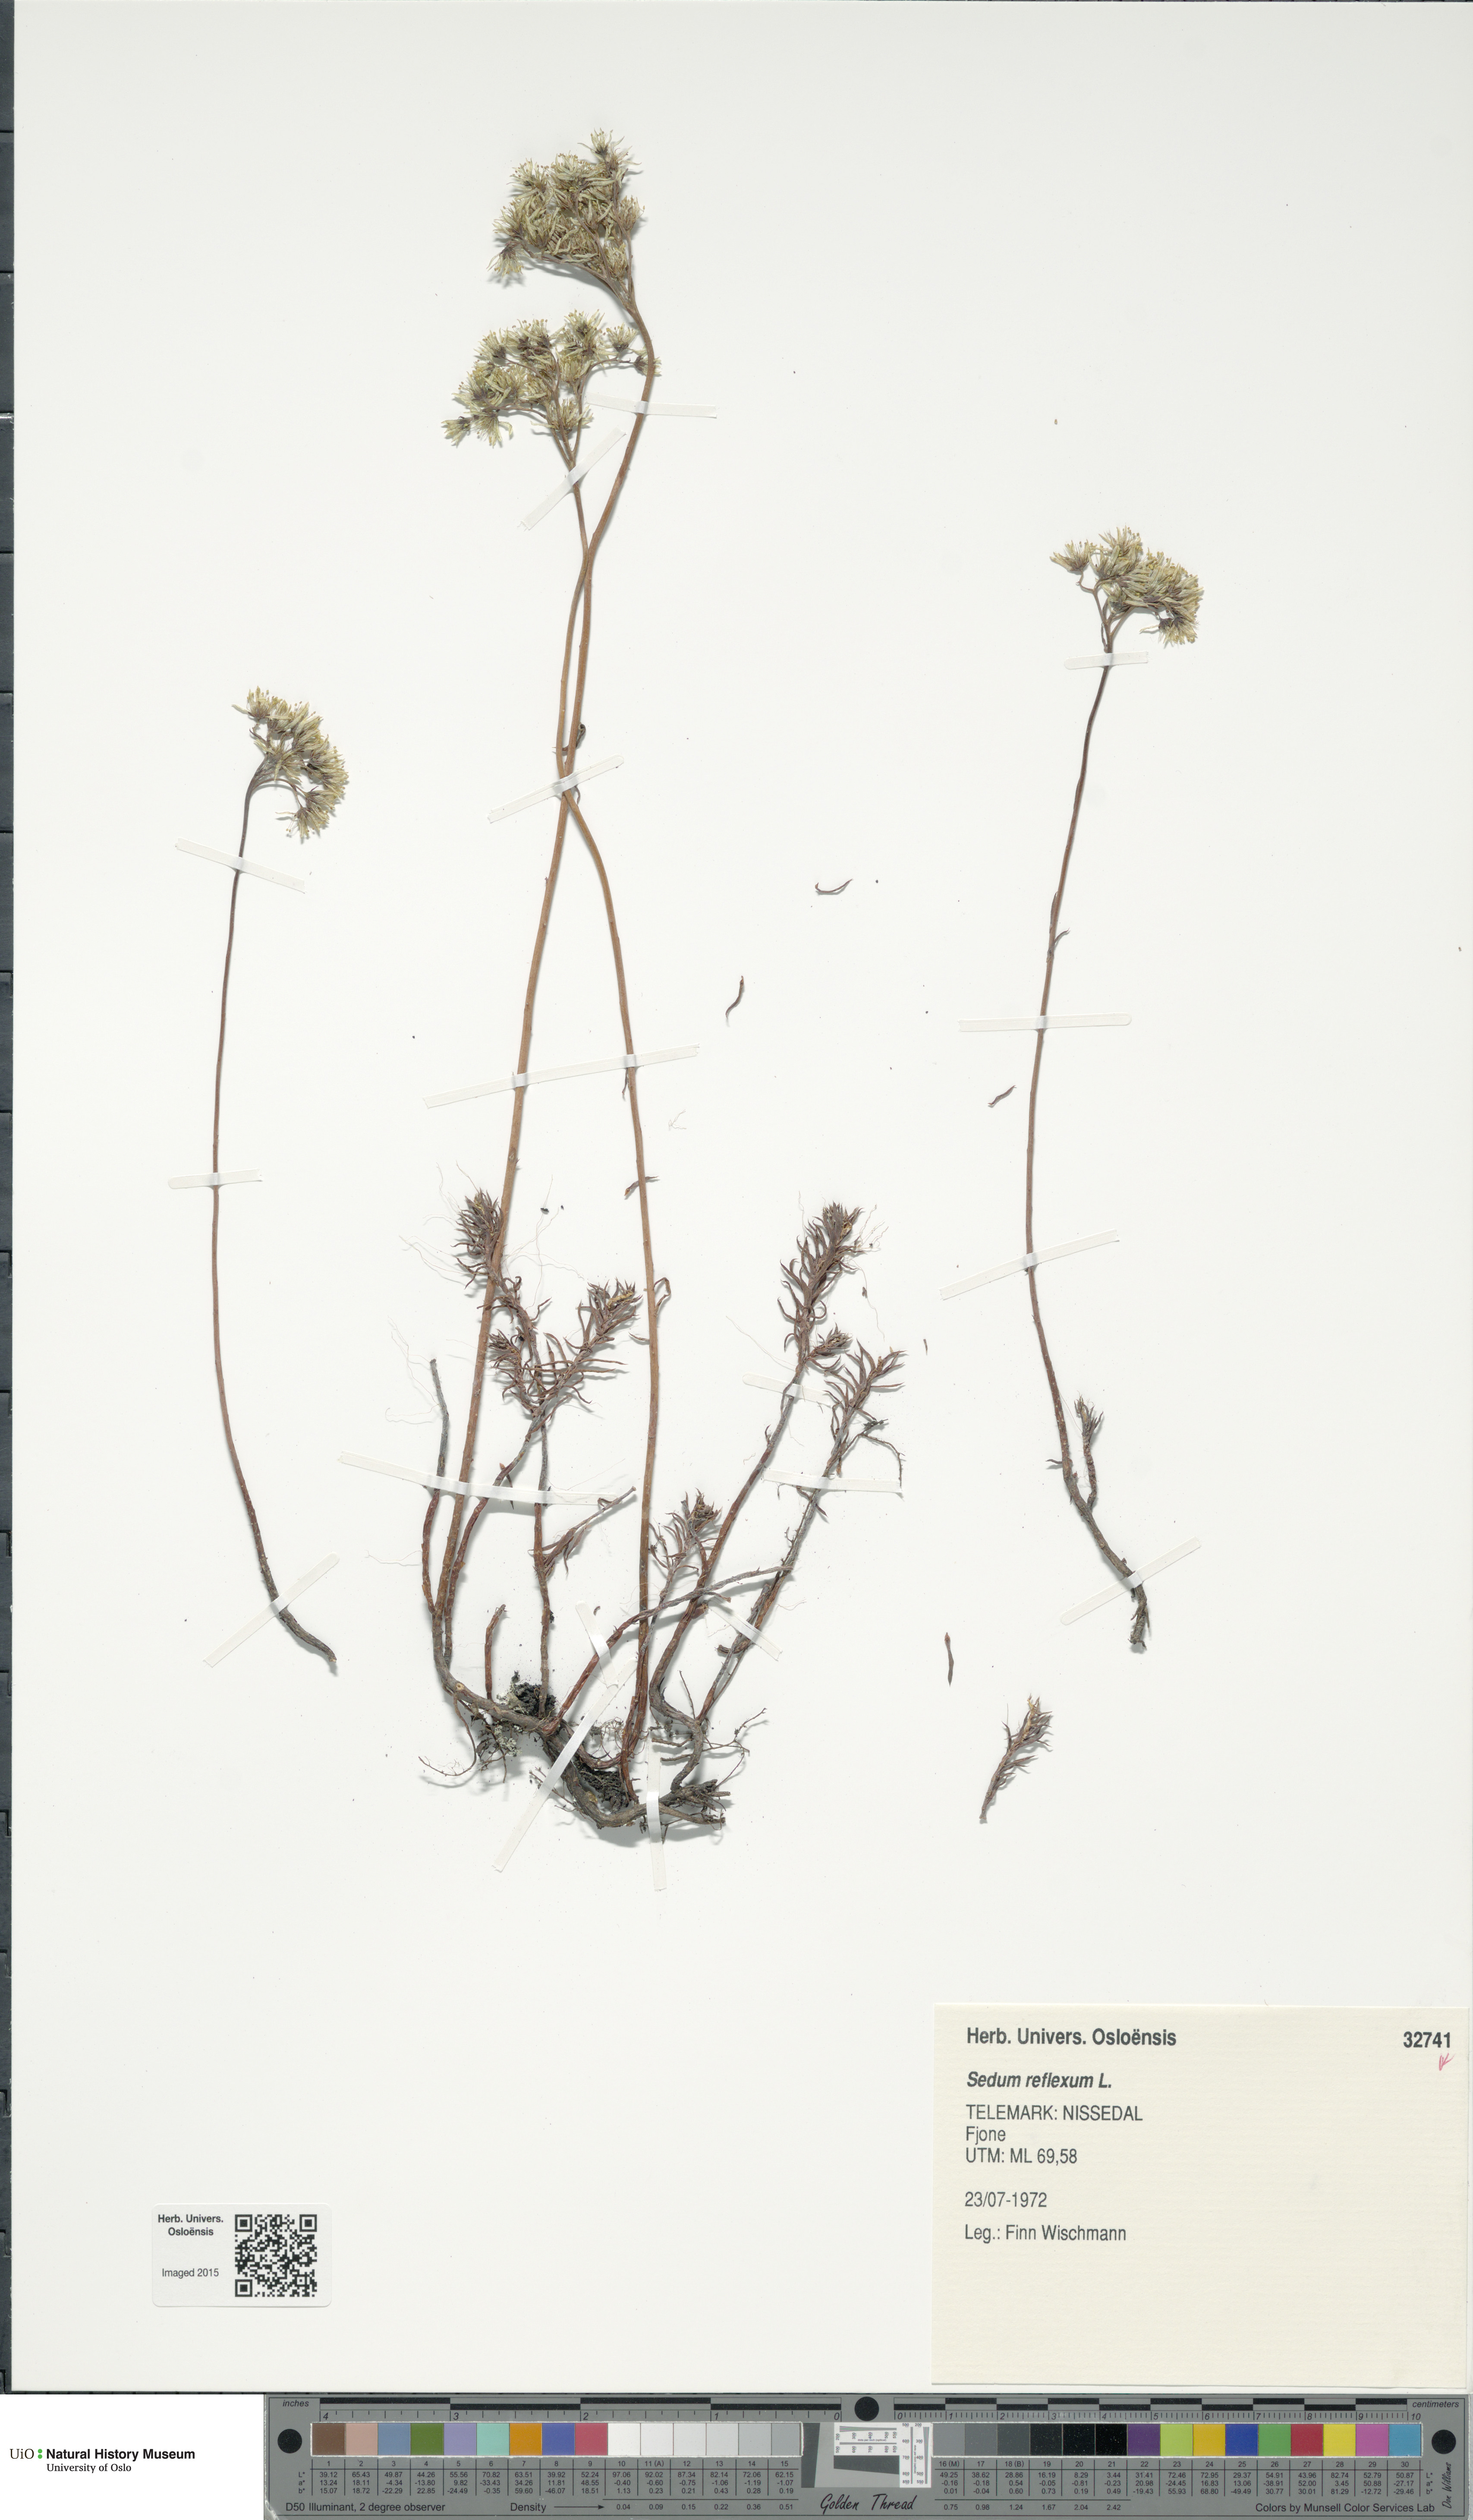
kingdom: Plantae
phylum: Tracheophyta
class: Magnoliopsida
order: Saxifragales
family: Crassulaceae
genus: Petrosedum
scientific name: Petrosedum rupestre
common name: Jenny's stonecrop
